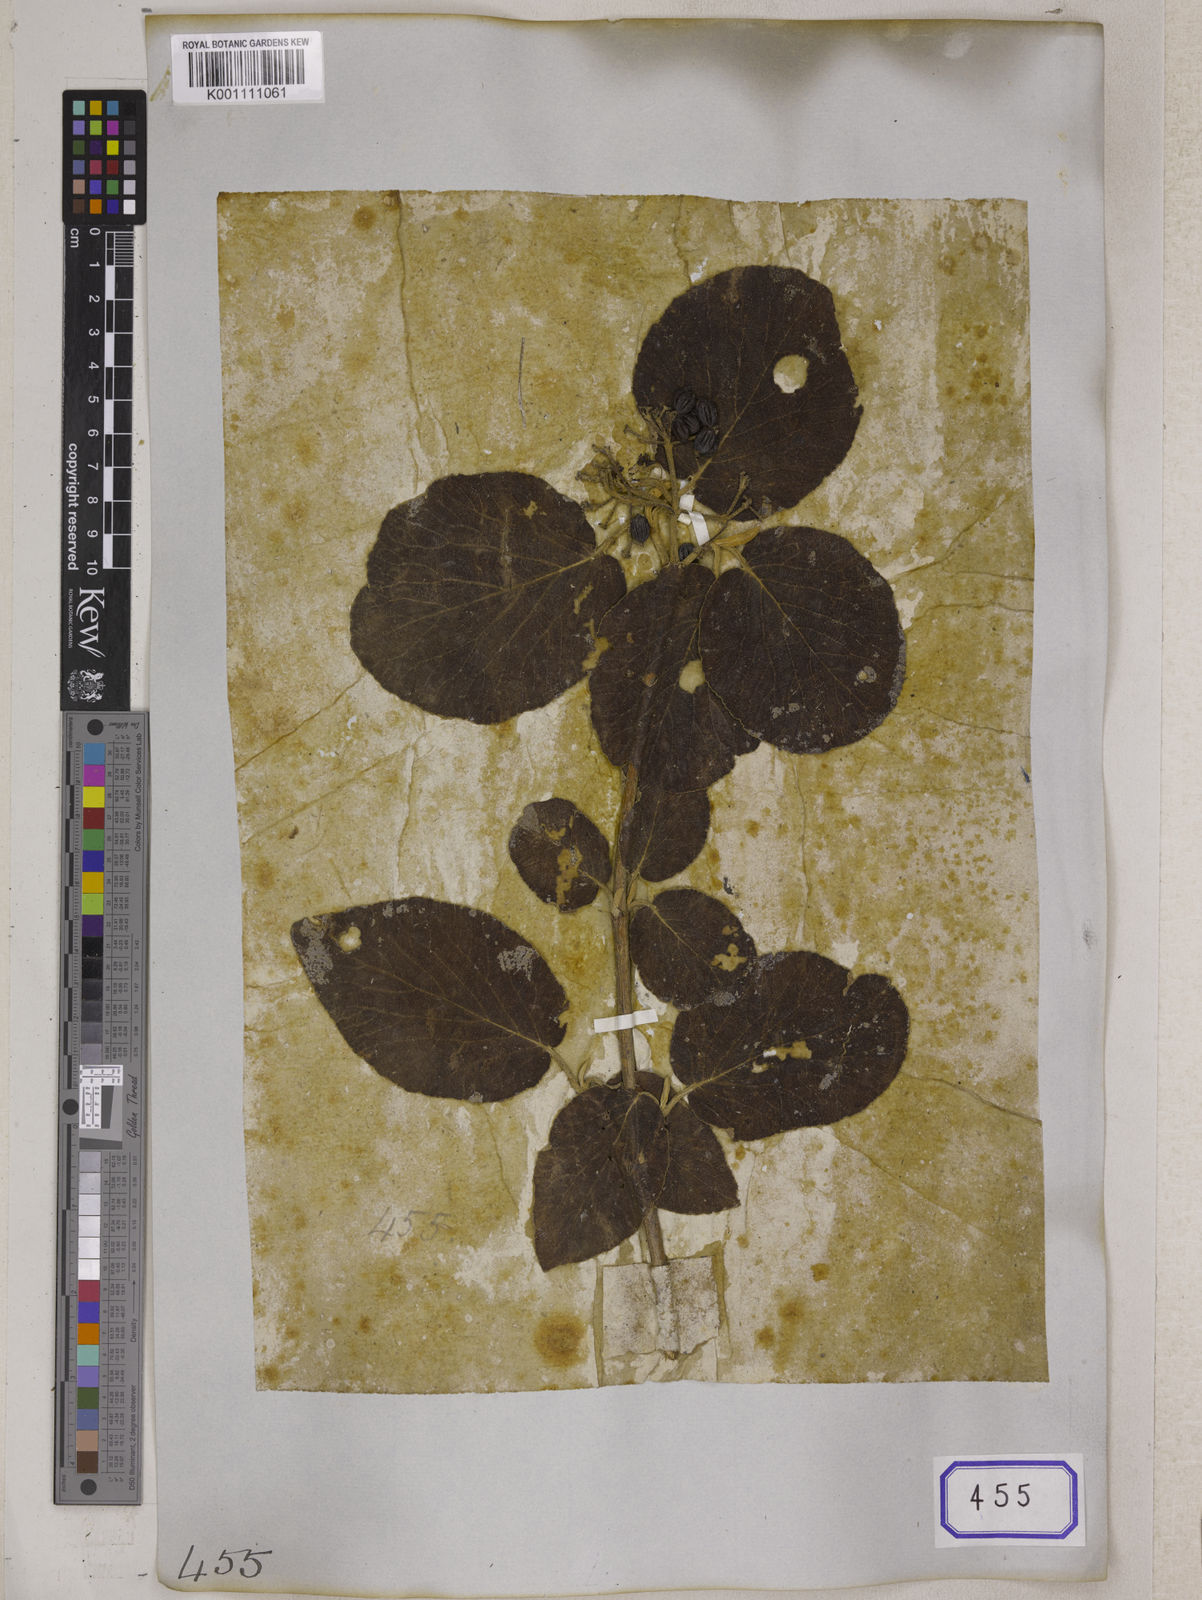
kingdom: Plantae
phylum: Tracheophyta
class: Magnoliopsida
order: Dipsacales
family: Viburnaceae
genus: Viburnum
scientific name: Viburnum
